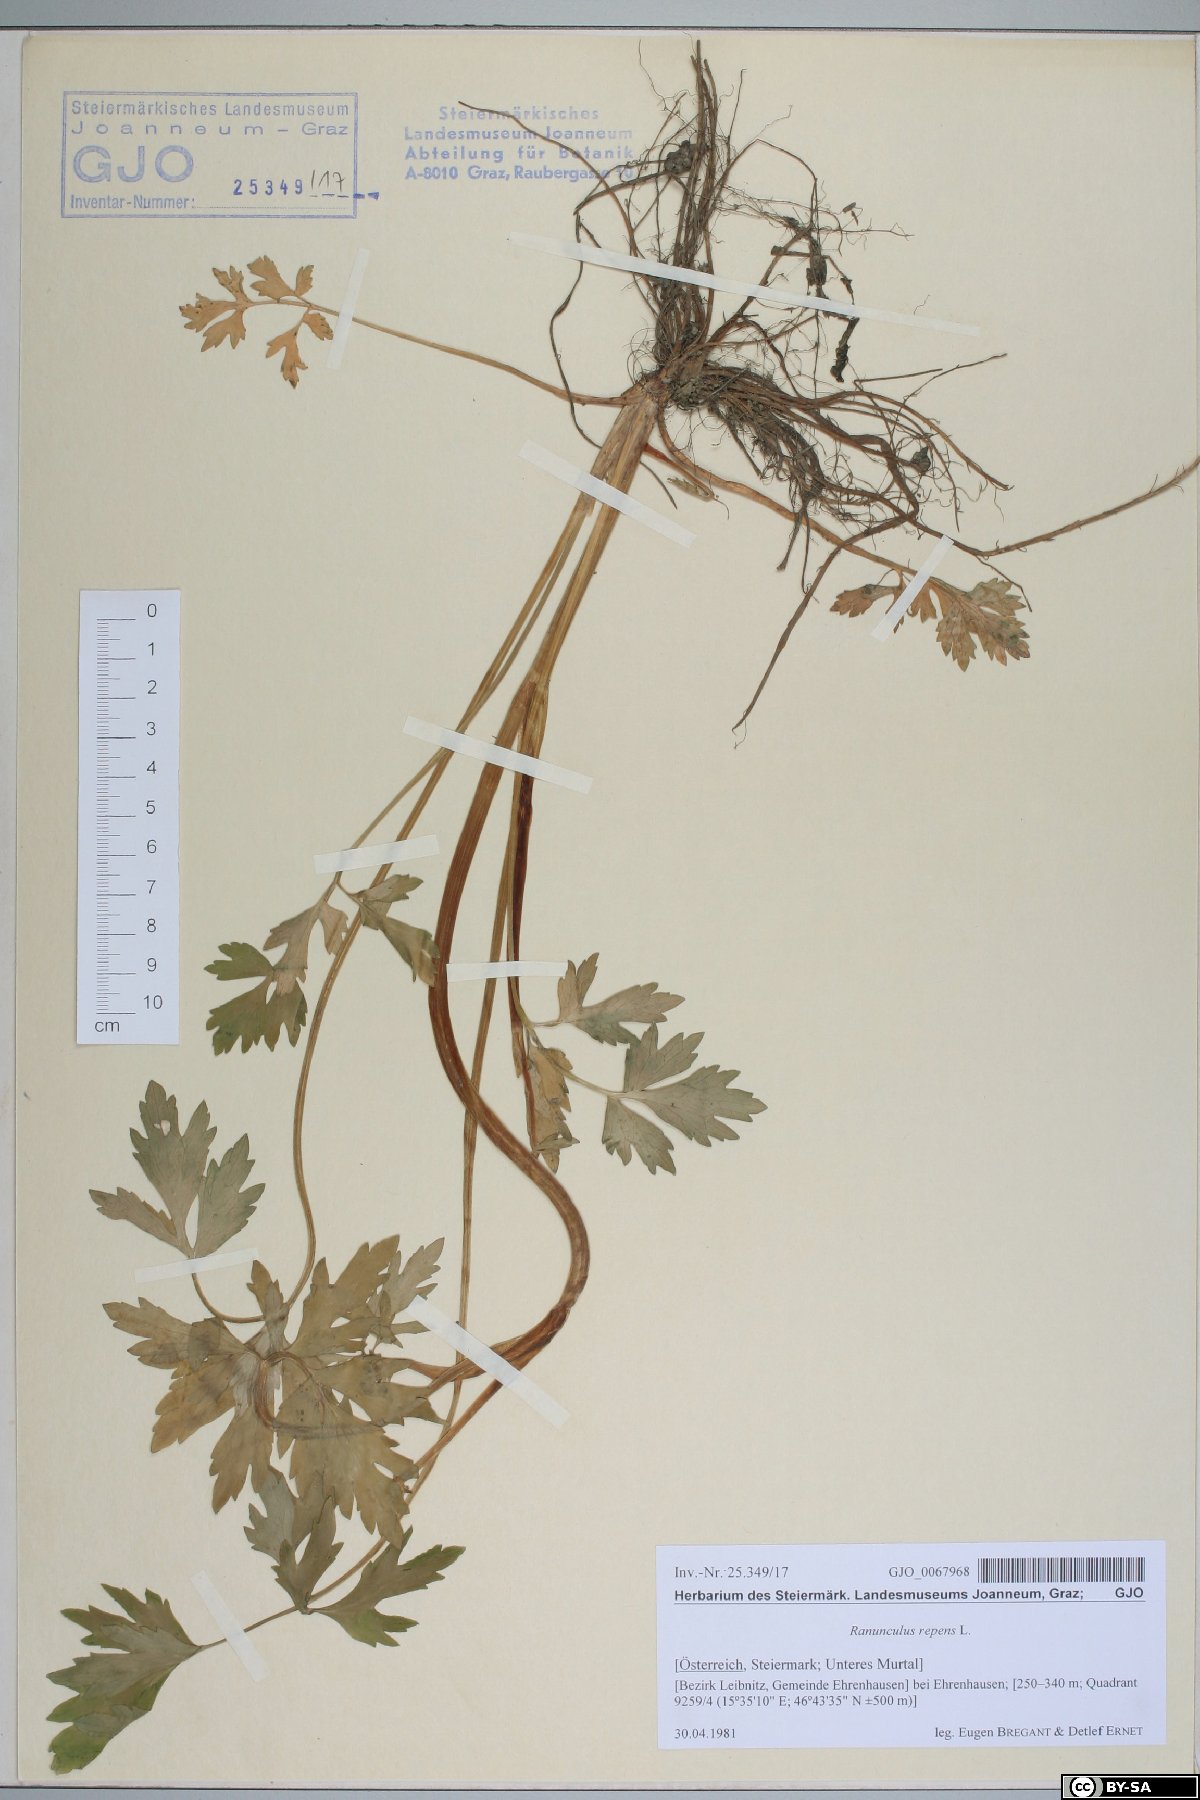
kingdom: Plantae
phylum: Tracheophyta
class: Magnoliopsida
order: Ranunculales
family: Ranunculaceae
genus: Ranunculus
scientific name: Ranunculus repens
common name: Creeping buttercup
